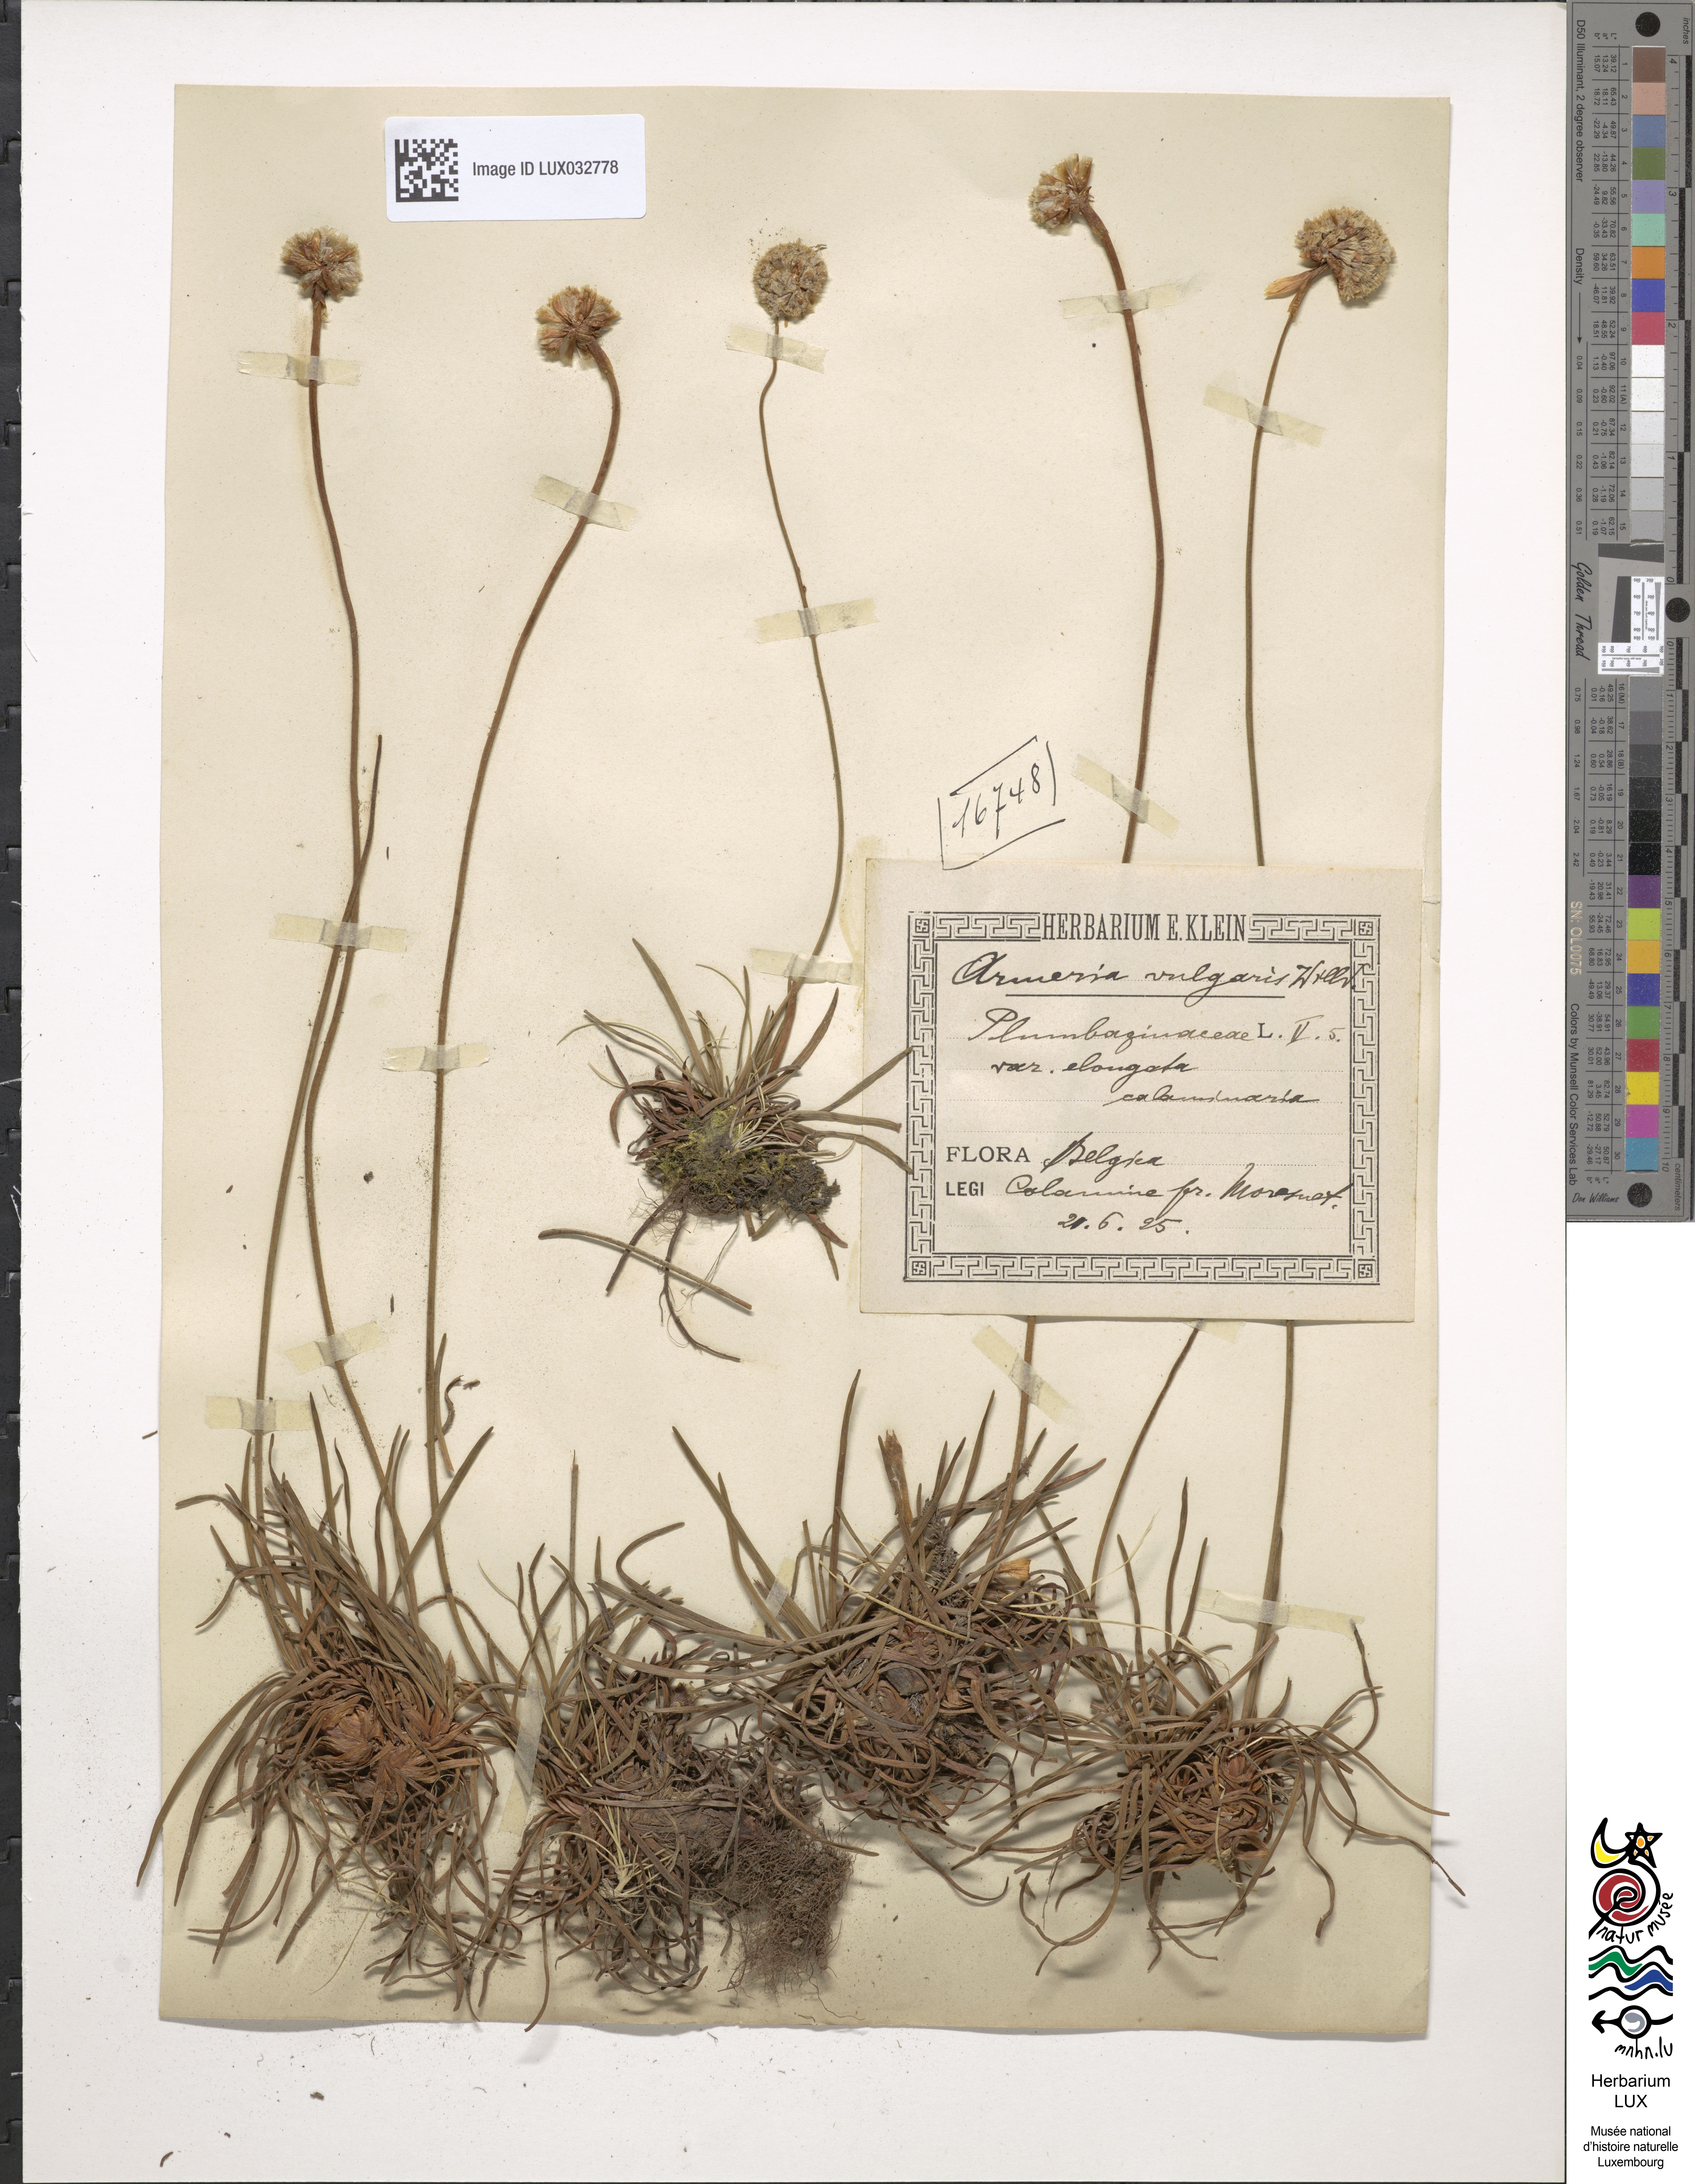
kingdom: Plantae
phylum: Tracheophyta
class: Magnoliopsida
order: Caryophyllales
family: Plumbaginaceae
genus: Armeria
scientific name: Armeria maritima
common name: Thrift
